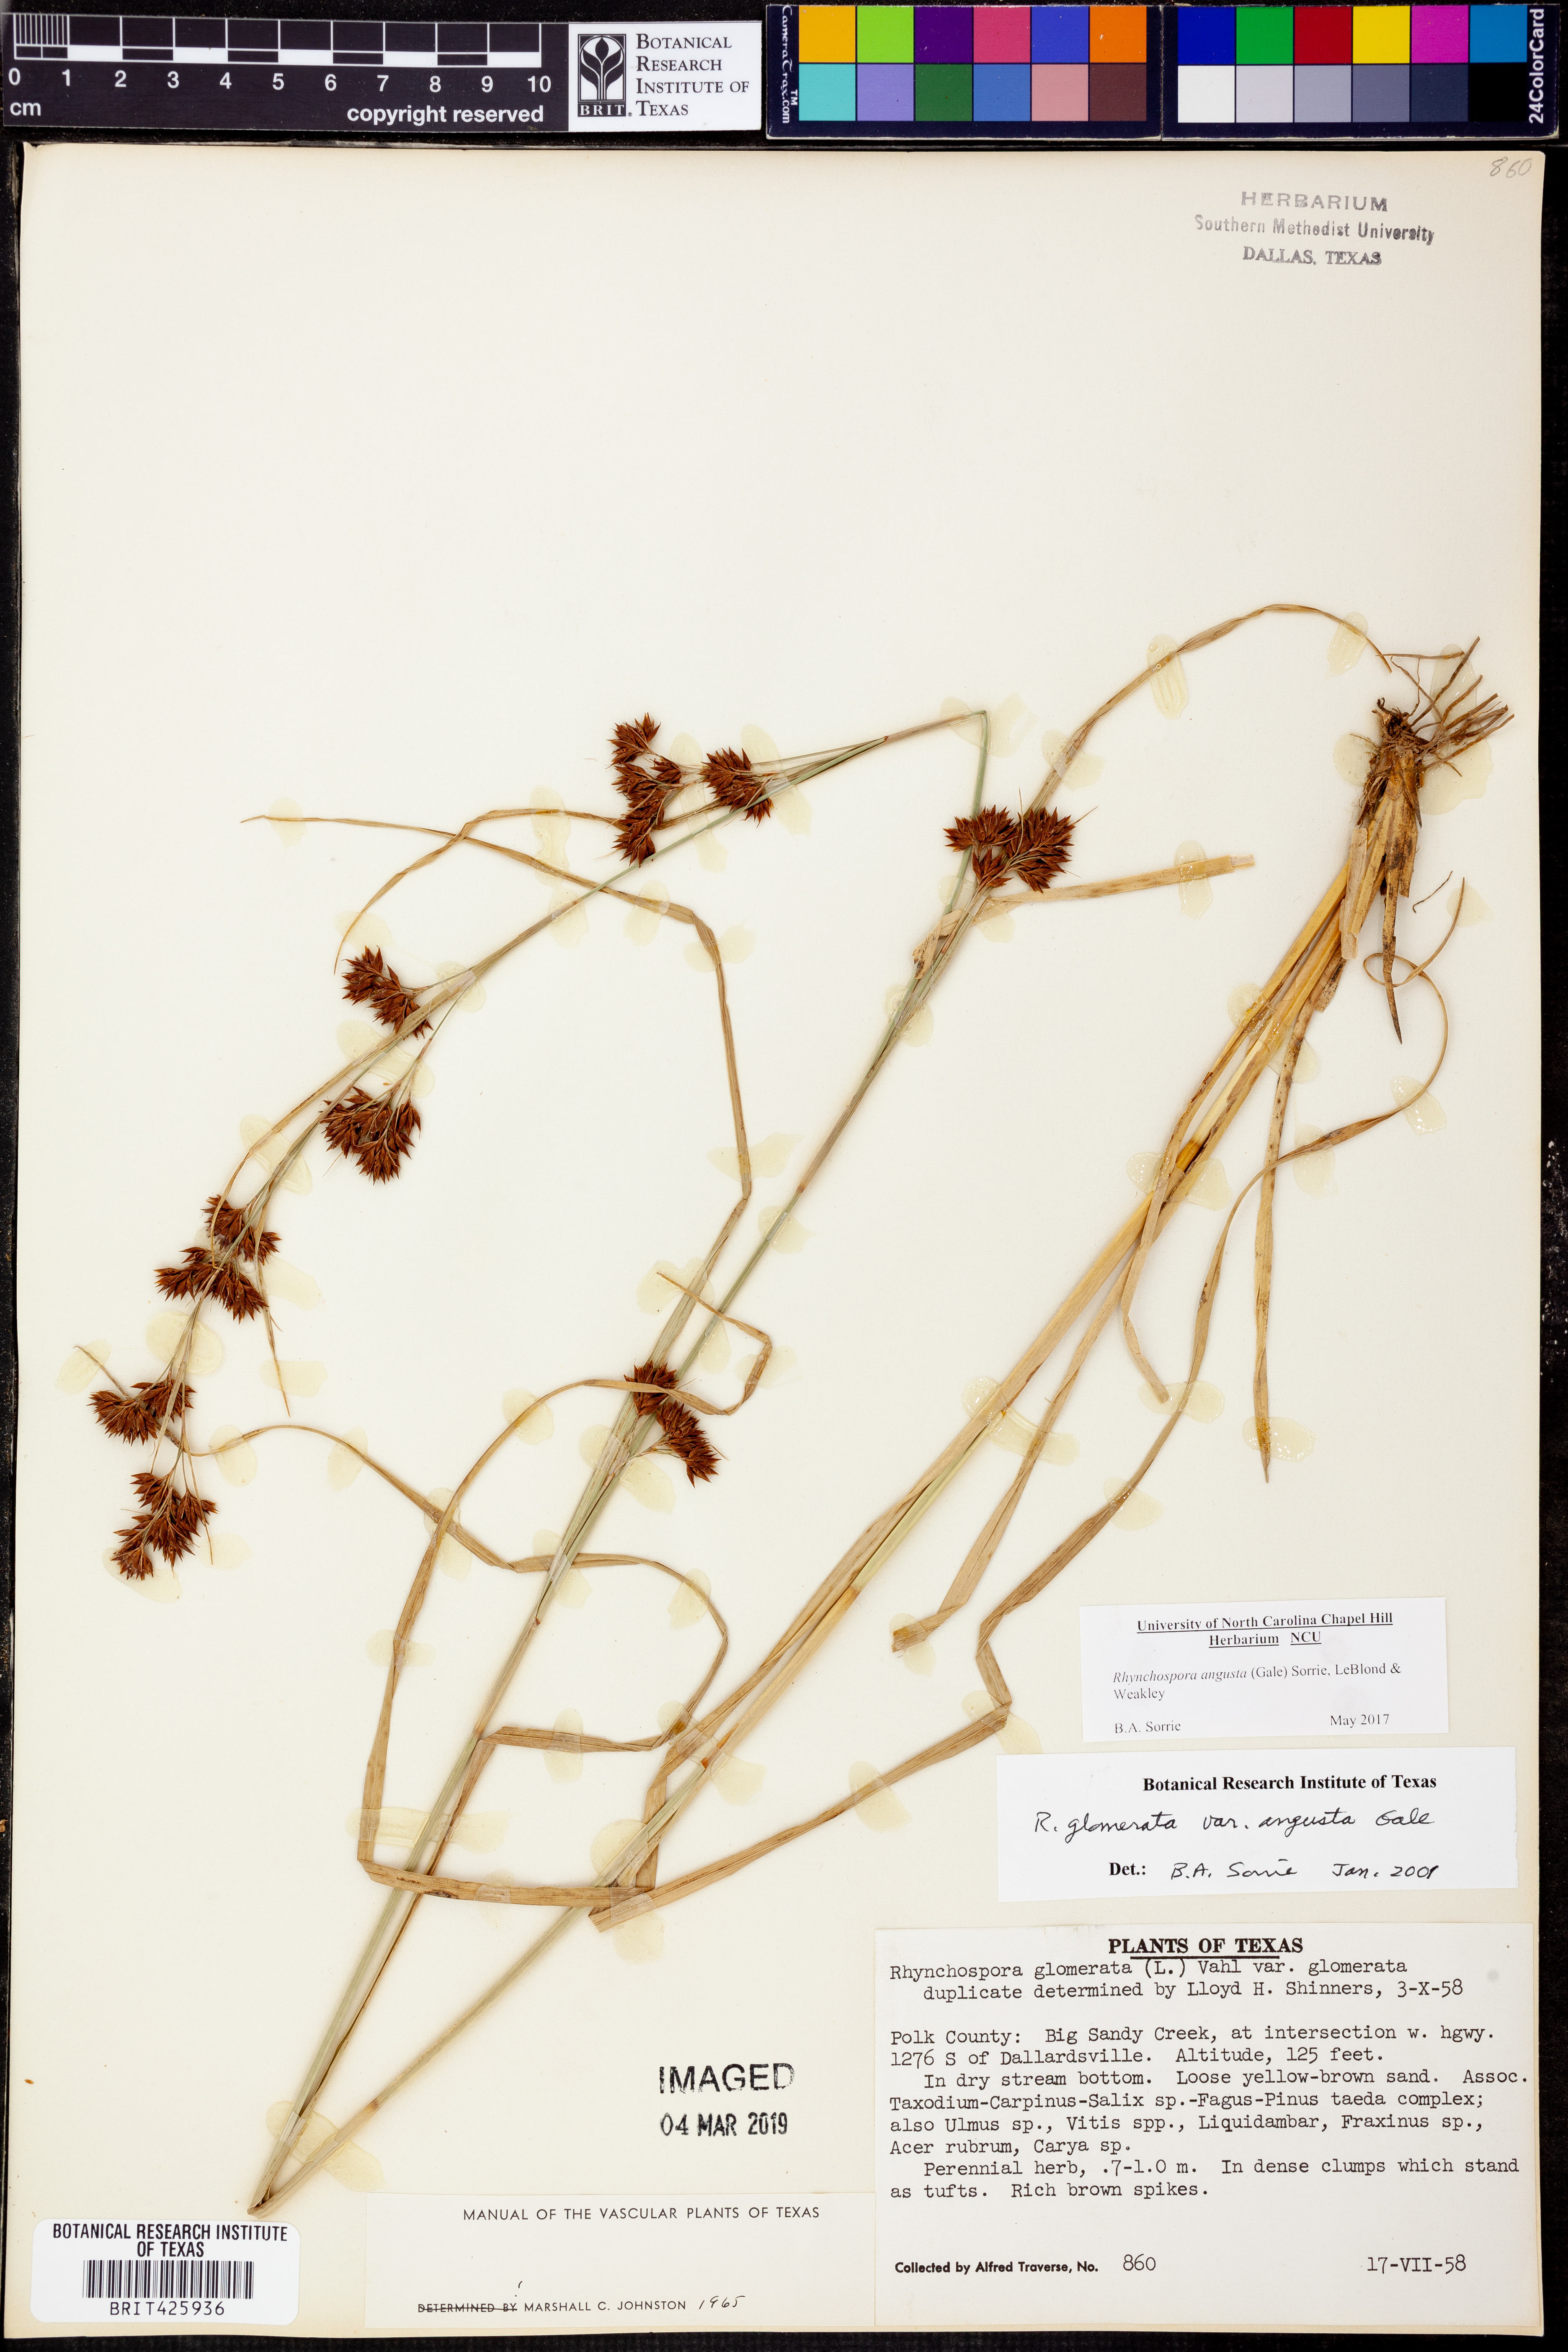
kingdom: Plantae
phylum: Tracheophyta
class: Liliopsida
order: Poales
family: Cyperaceae
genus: Rhynchospora
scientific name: Rhynchospora angusta
